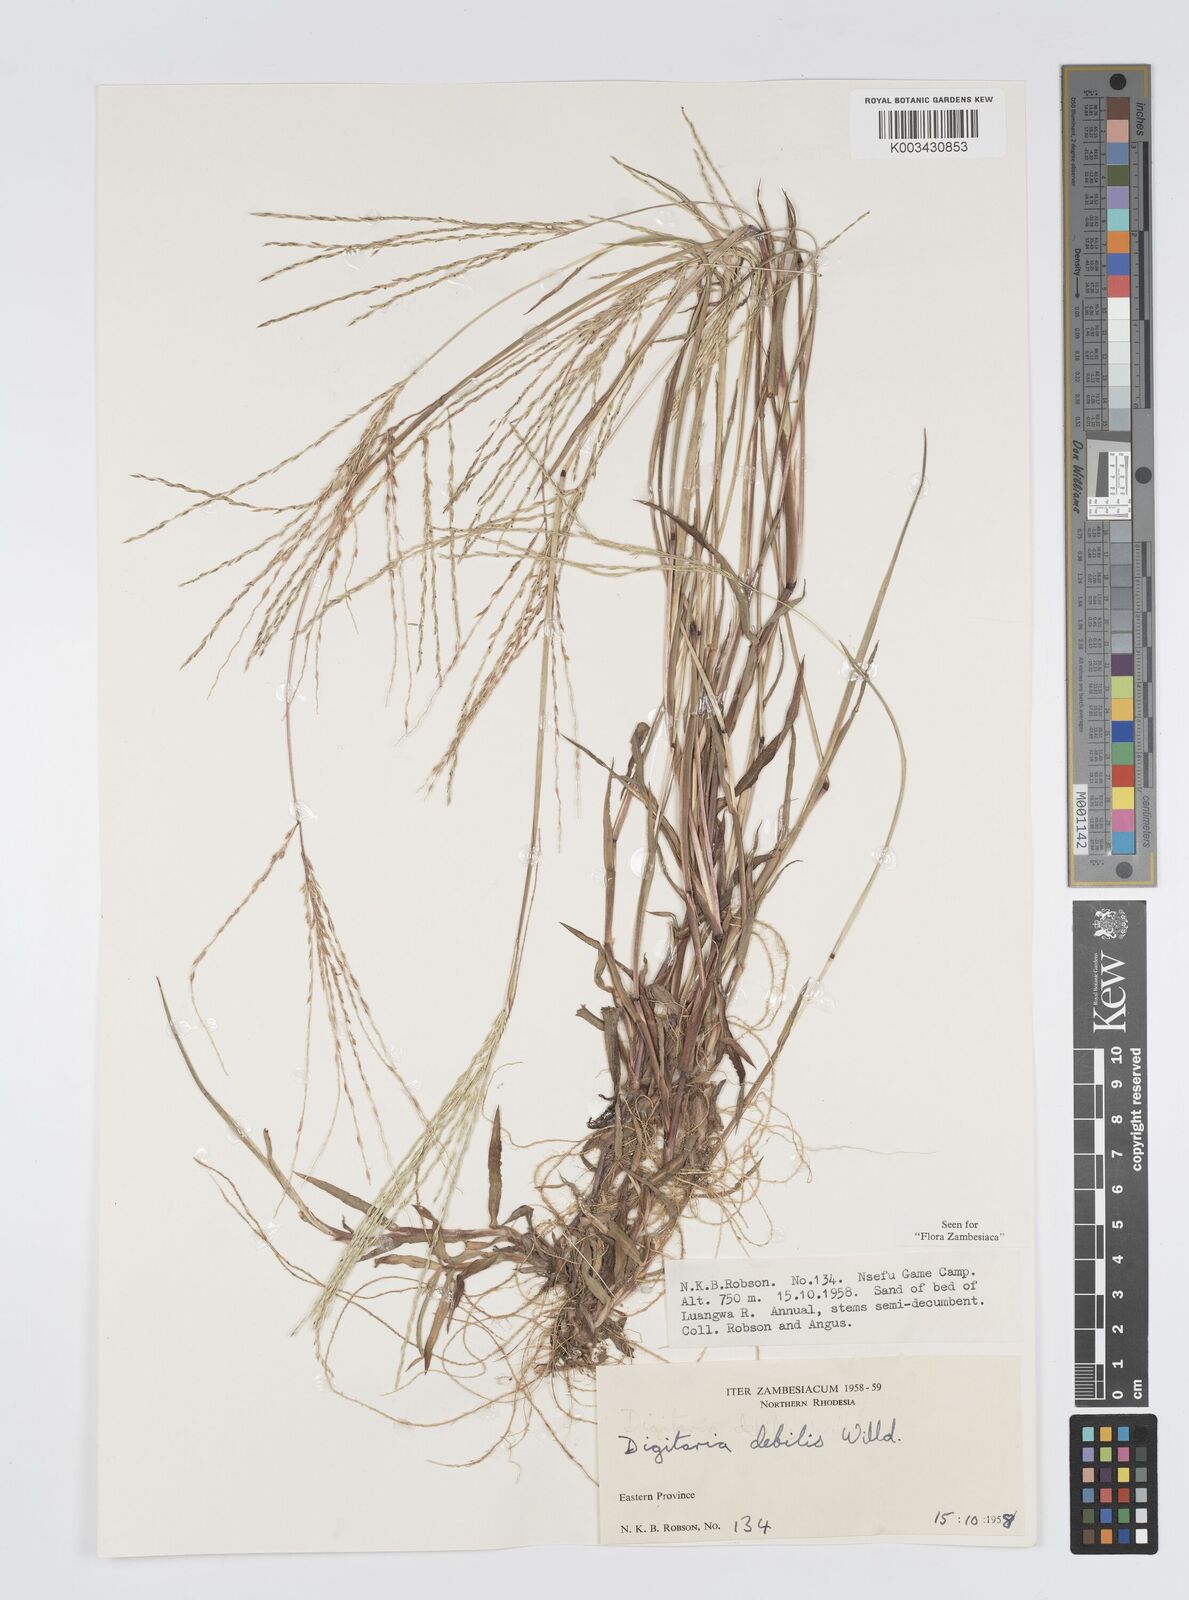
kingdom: Plantae
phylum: Tracheophyta
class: Liliopsida
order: Poales
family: Poaceae
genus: Digitaria
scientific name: Digitaria debilis
